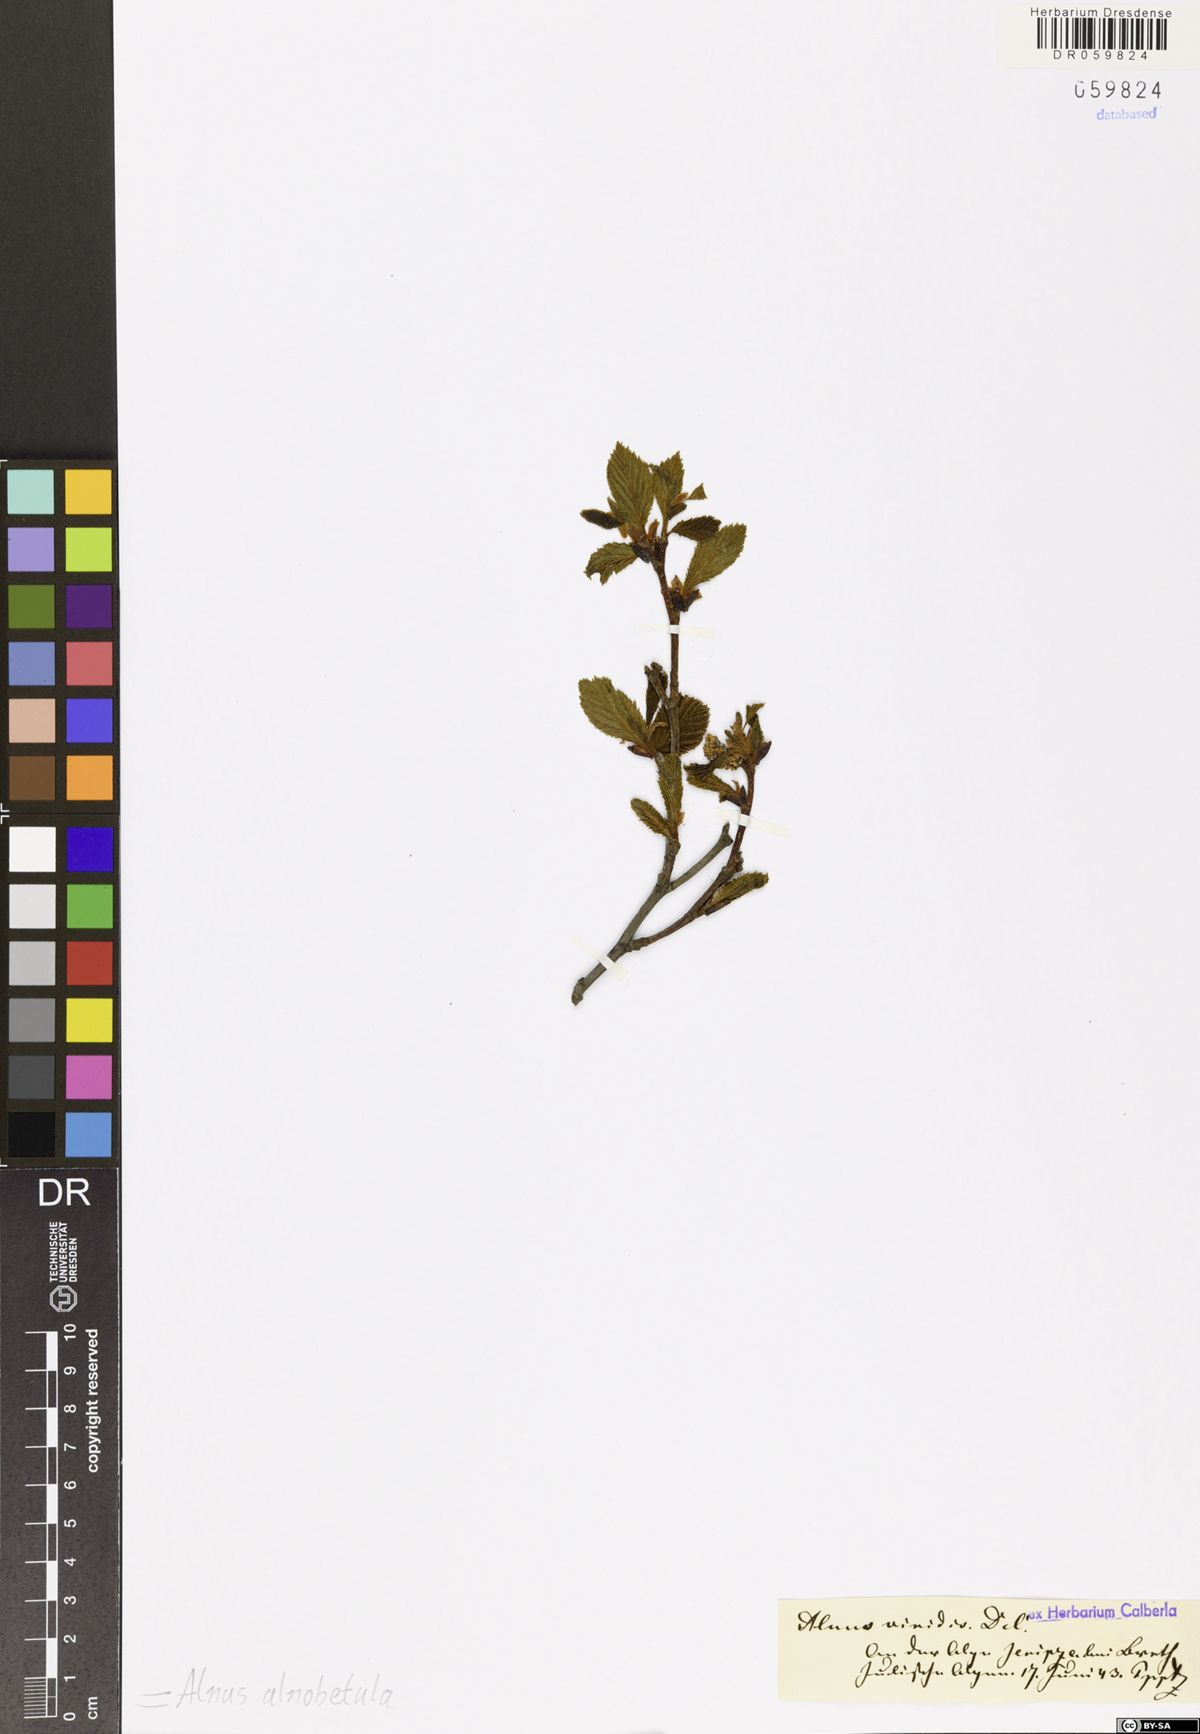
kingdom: Plantae
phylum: Tracheophyta
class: Magnoliopsida
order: Fagales
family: Betulaceae
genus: Alnus
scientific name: Alnus alnobetula
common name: Green alder
